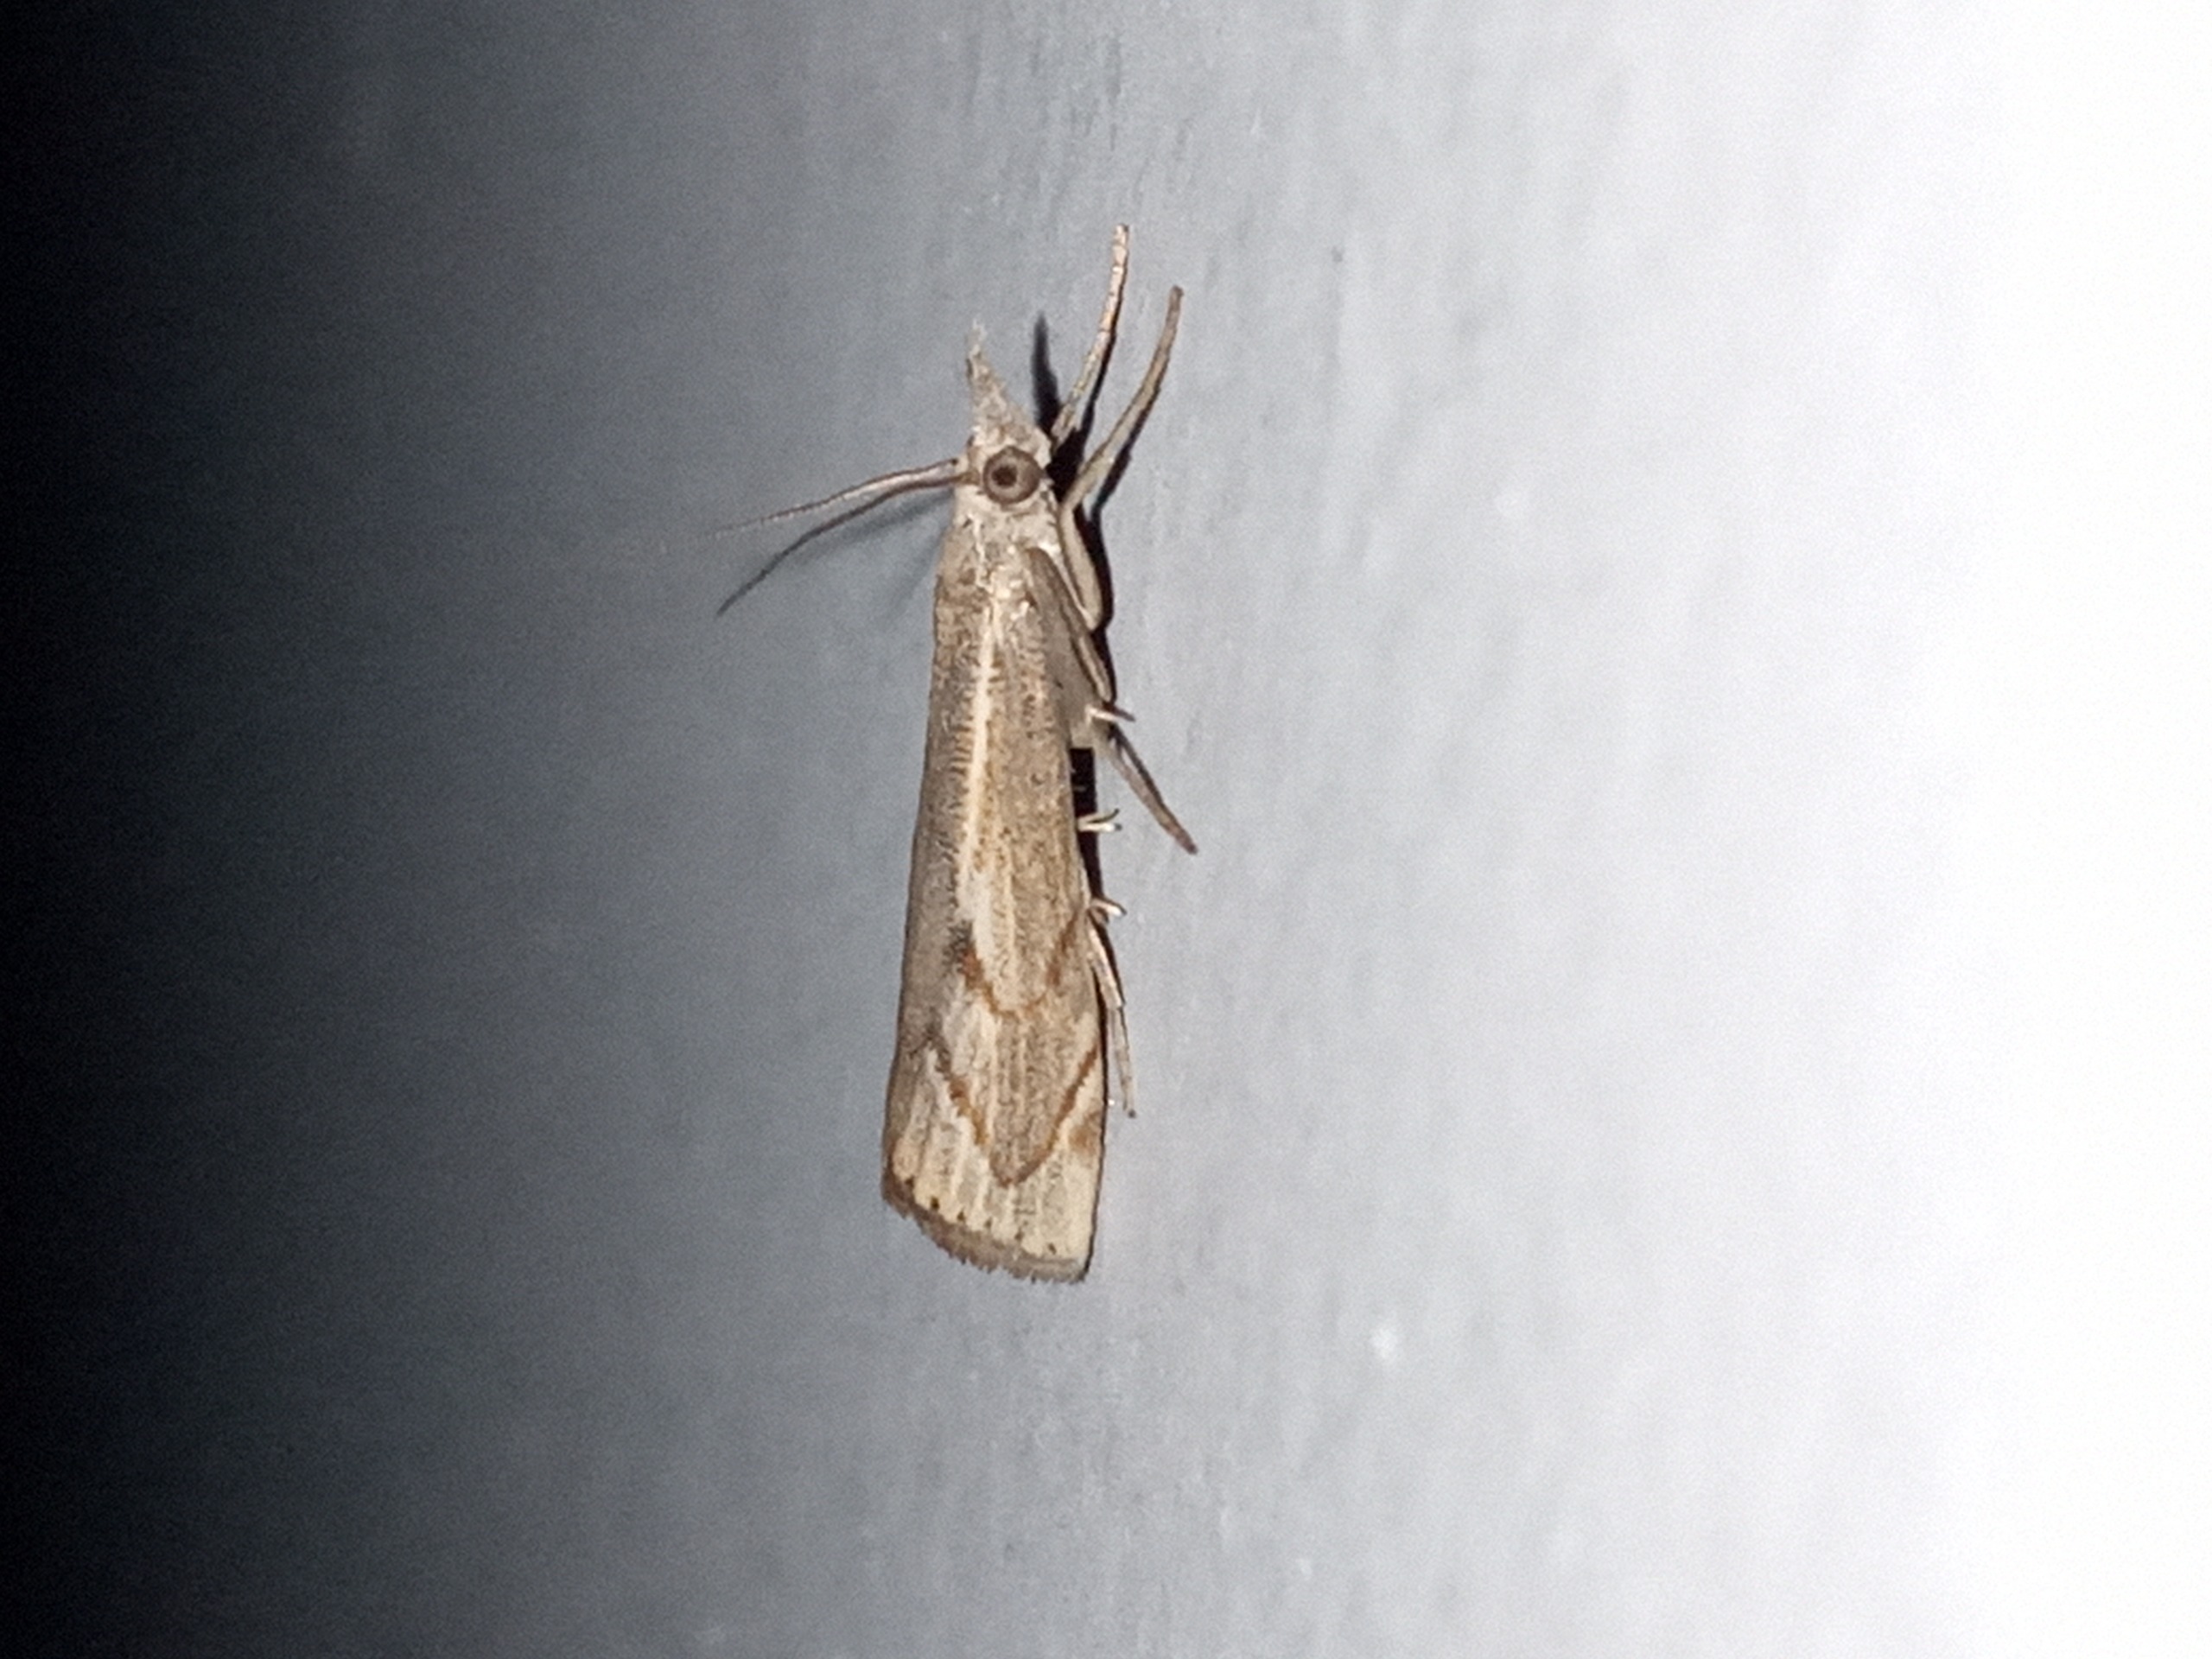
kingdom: Animalia
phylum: Arthropoda
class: Insecta
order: Lepidoptera
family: Crambidae
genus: Agriphila
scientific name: Agriphila geniculea
